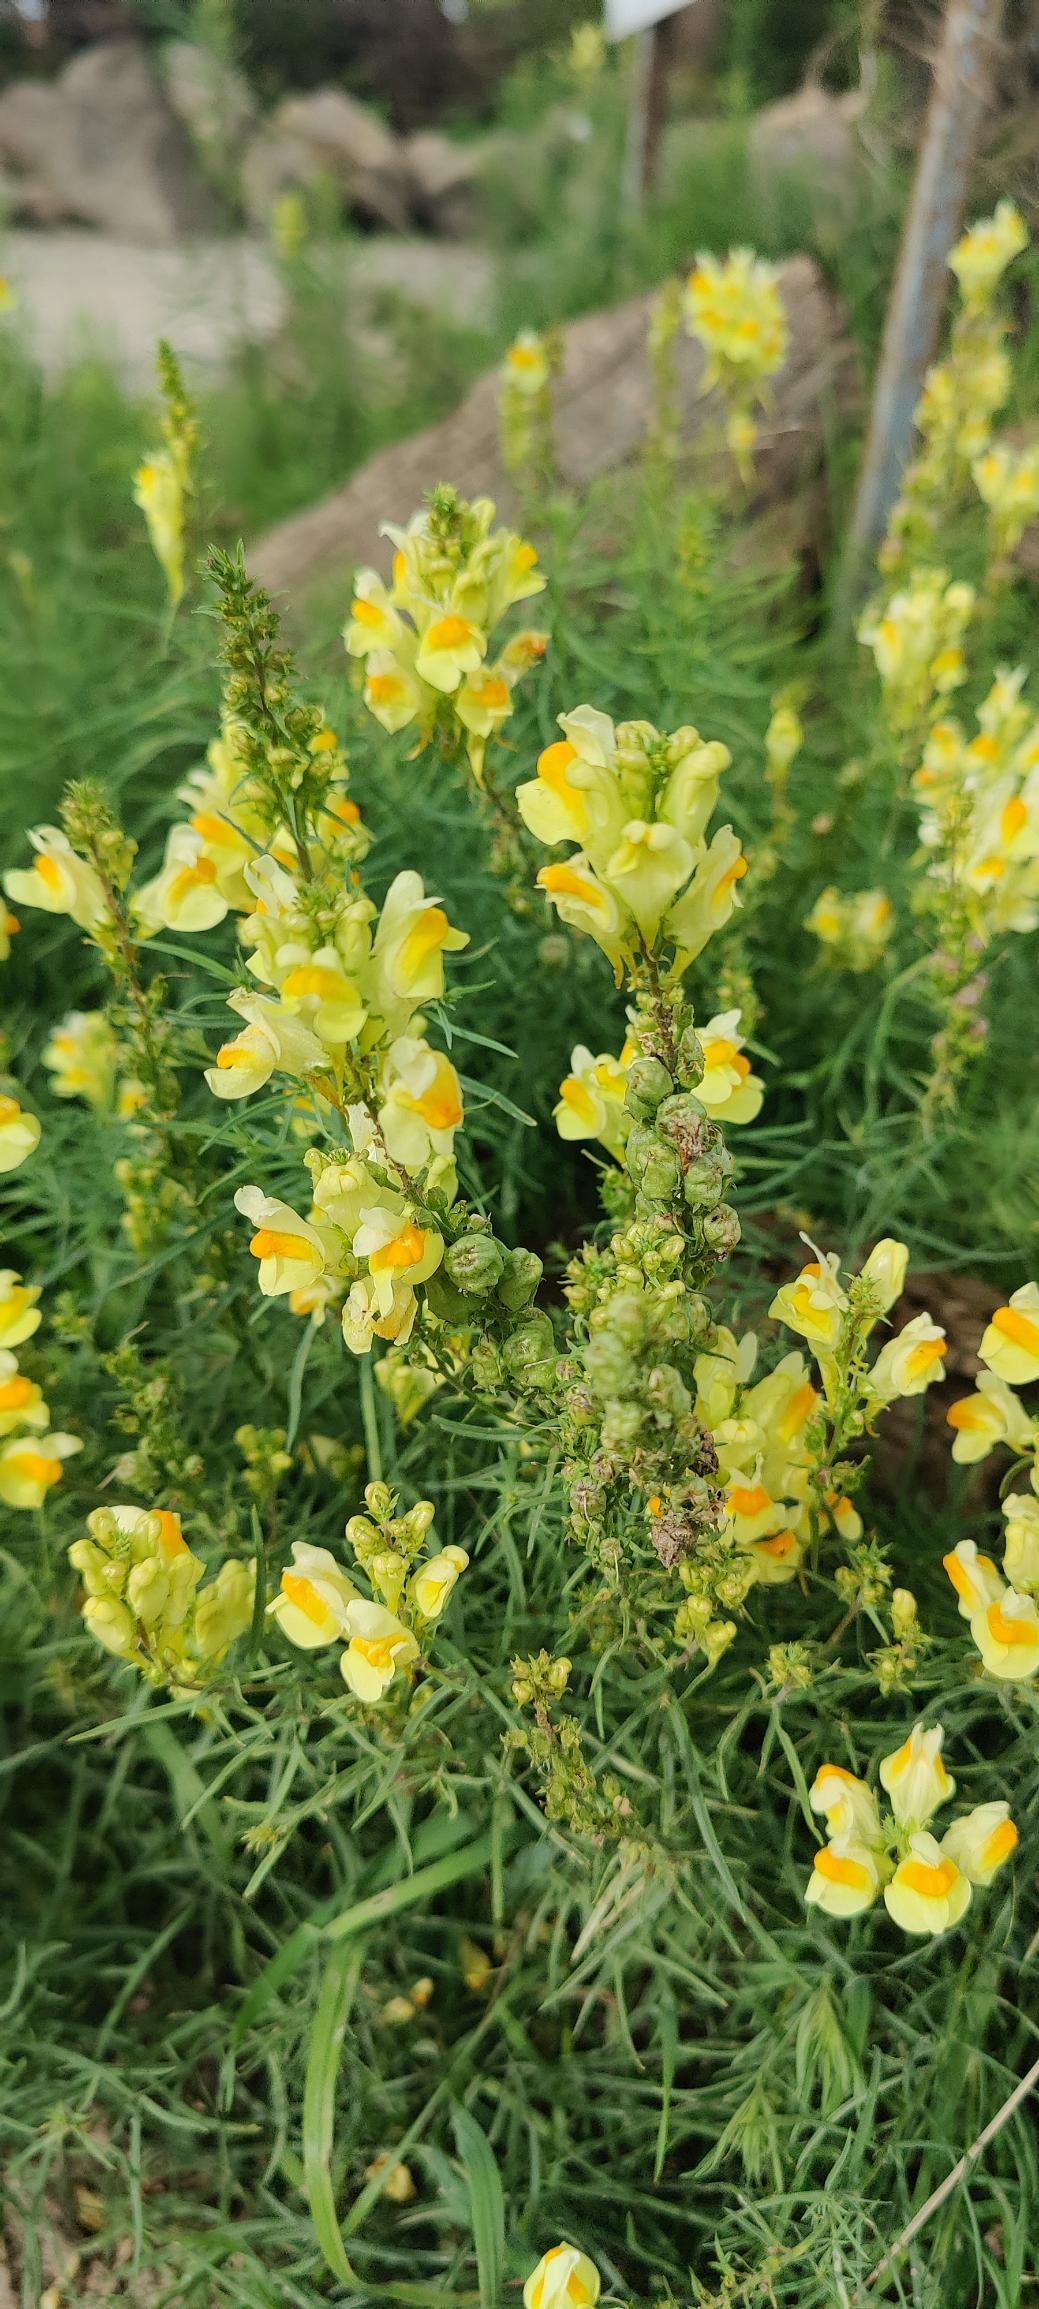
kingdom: Plantae
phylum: Tracheophyta
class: Magnoliopsida
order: Lamiales
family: Plantaginaceae
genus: Linaria
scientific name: Linaria vulgaris
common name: Almindelig torskemund
